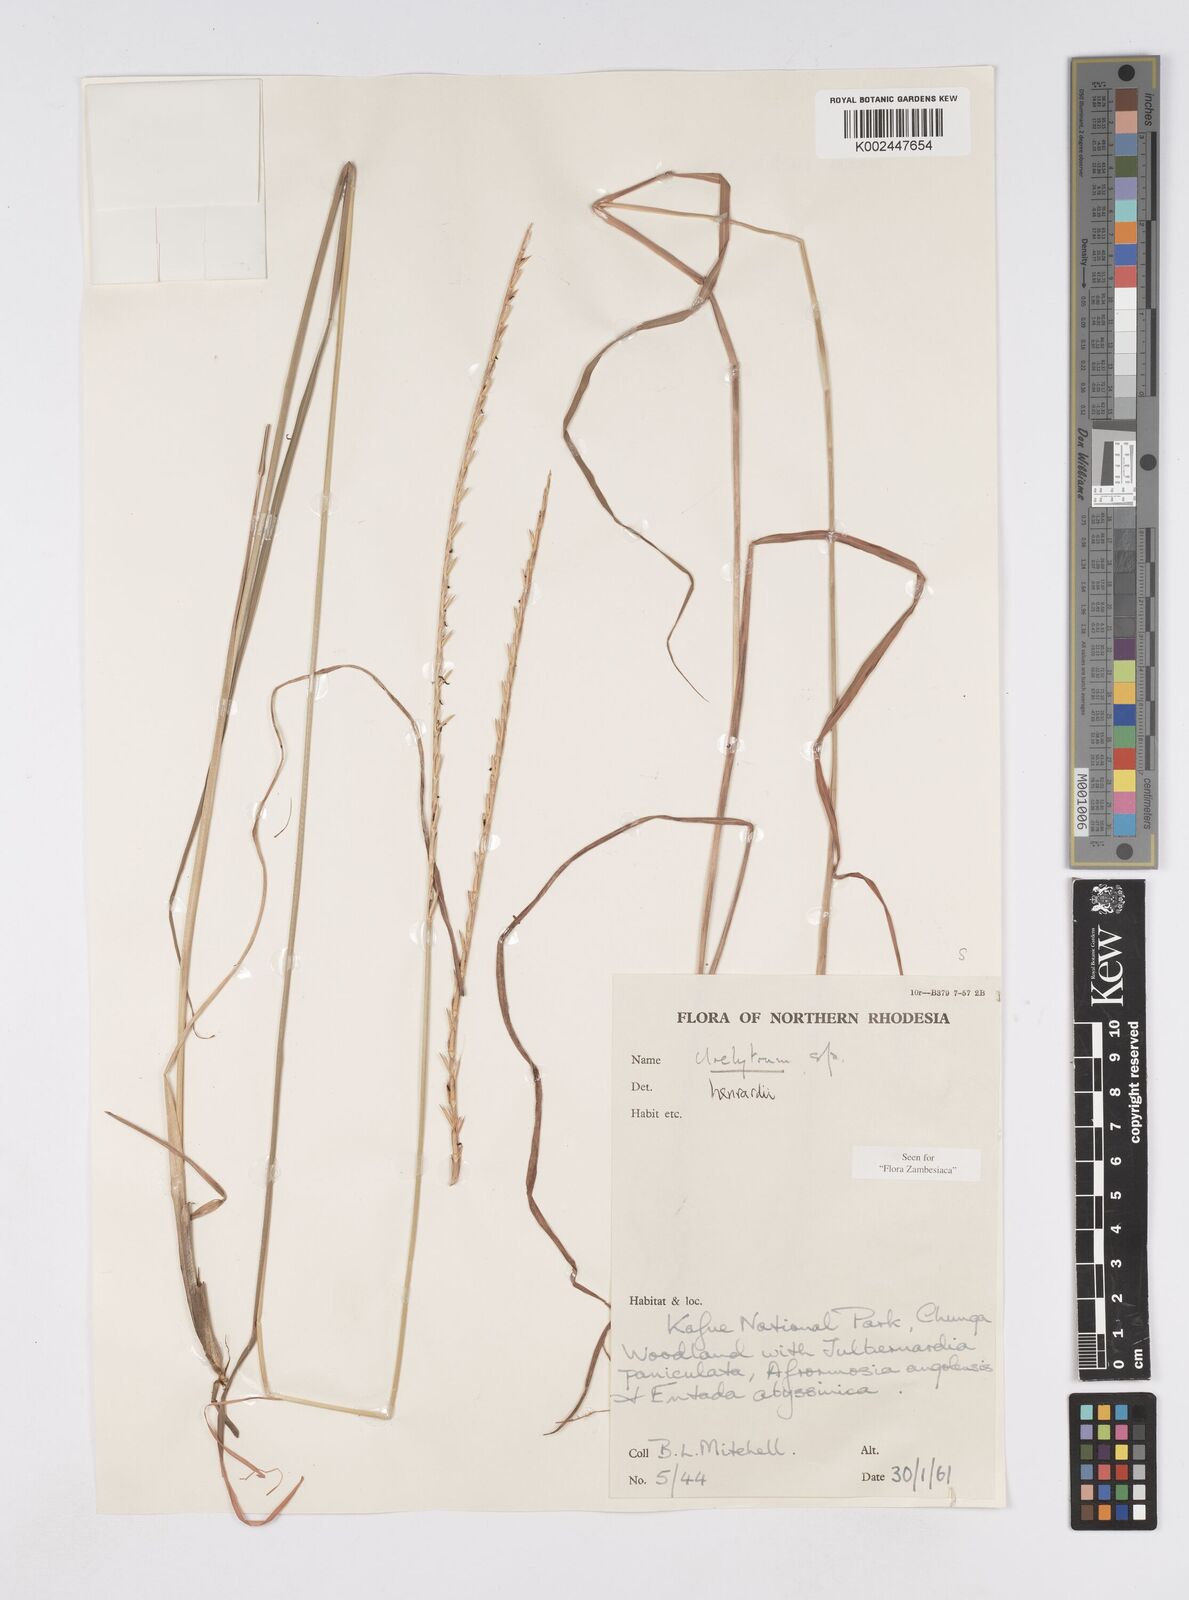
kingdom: Plantae
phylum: Tracheophyta
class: Liliopsida
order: Poales
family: Poaceae
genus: Urelytrum
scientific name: Urelytrum henrardii
